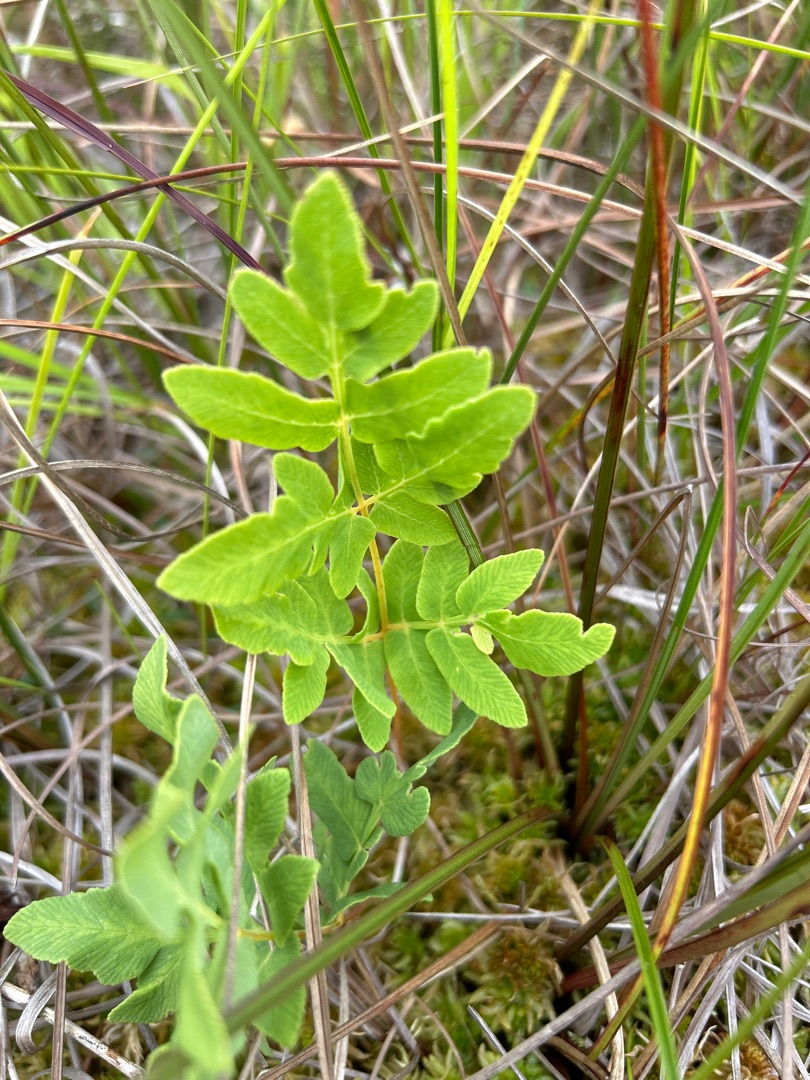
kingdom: Plantae
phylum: Tracheophyta
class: Polypodiopsida
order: Osmundales
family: Osmundaceae
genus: Osmunda
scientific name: Osmunda regalis
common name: Kongebregne
